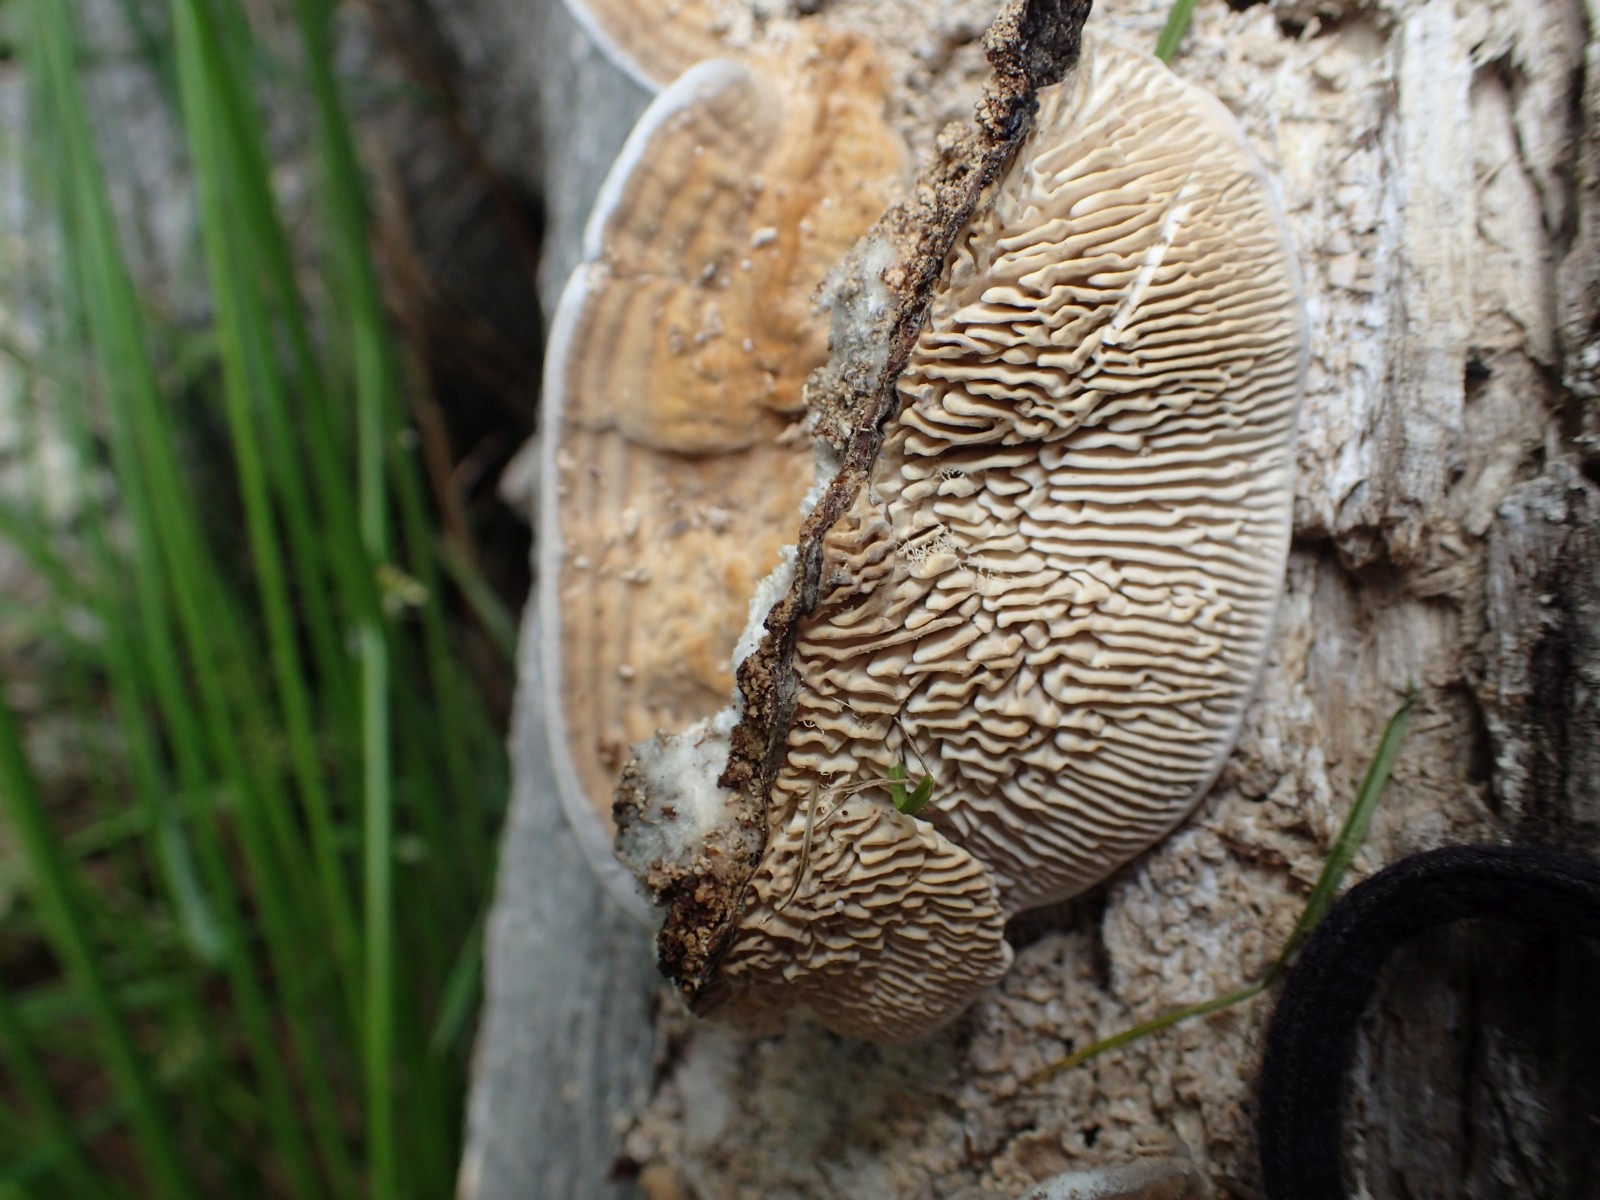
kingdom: Fungi
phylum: Basidiomycota
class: Agaricomycetes
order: Polyporales
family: Fomitopsidaceae
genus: Daedalea
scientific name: Daedalea quercina
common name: ege-labyrintsvamp
